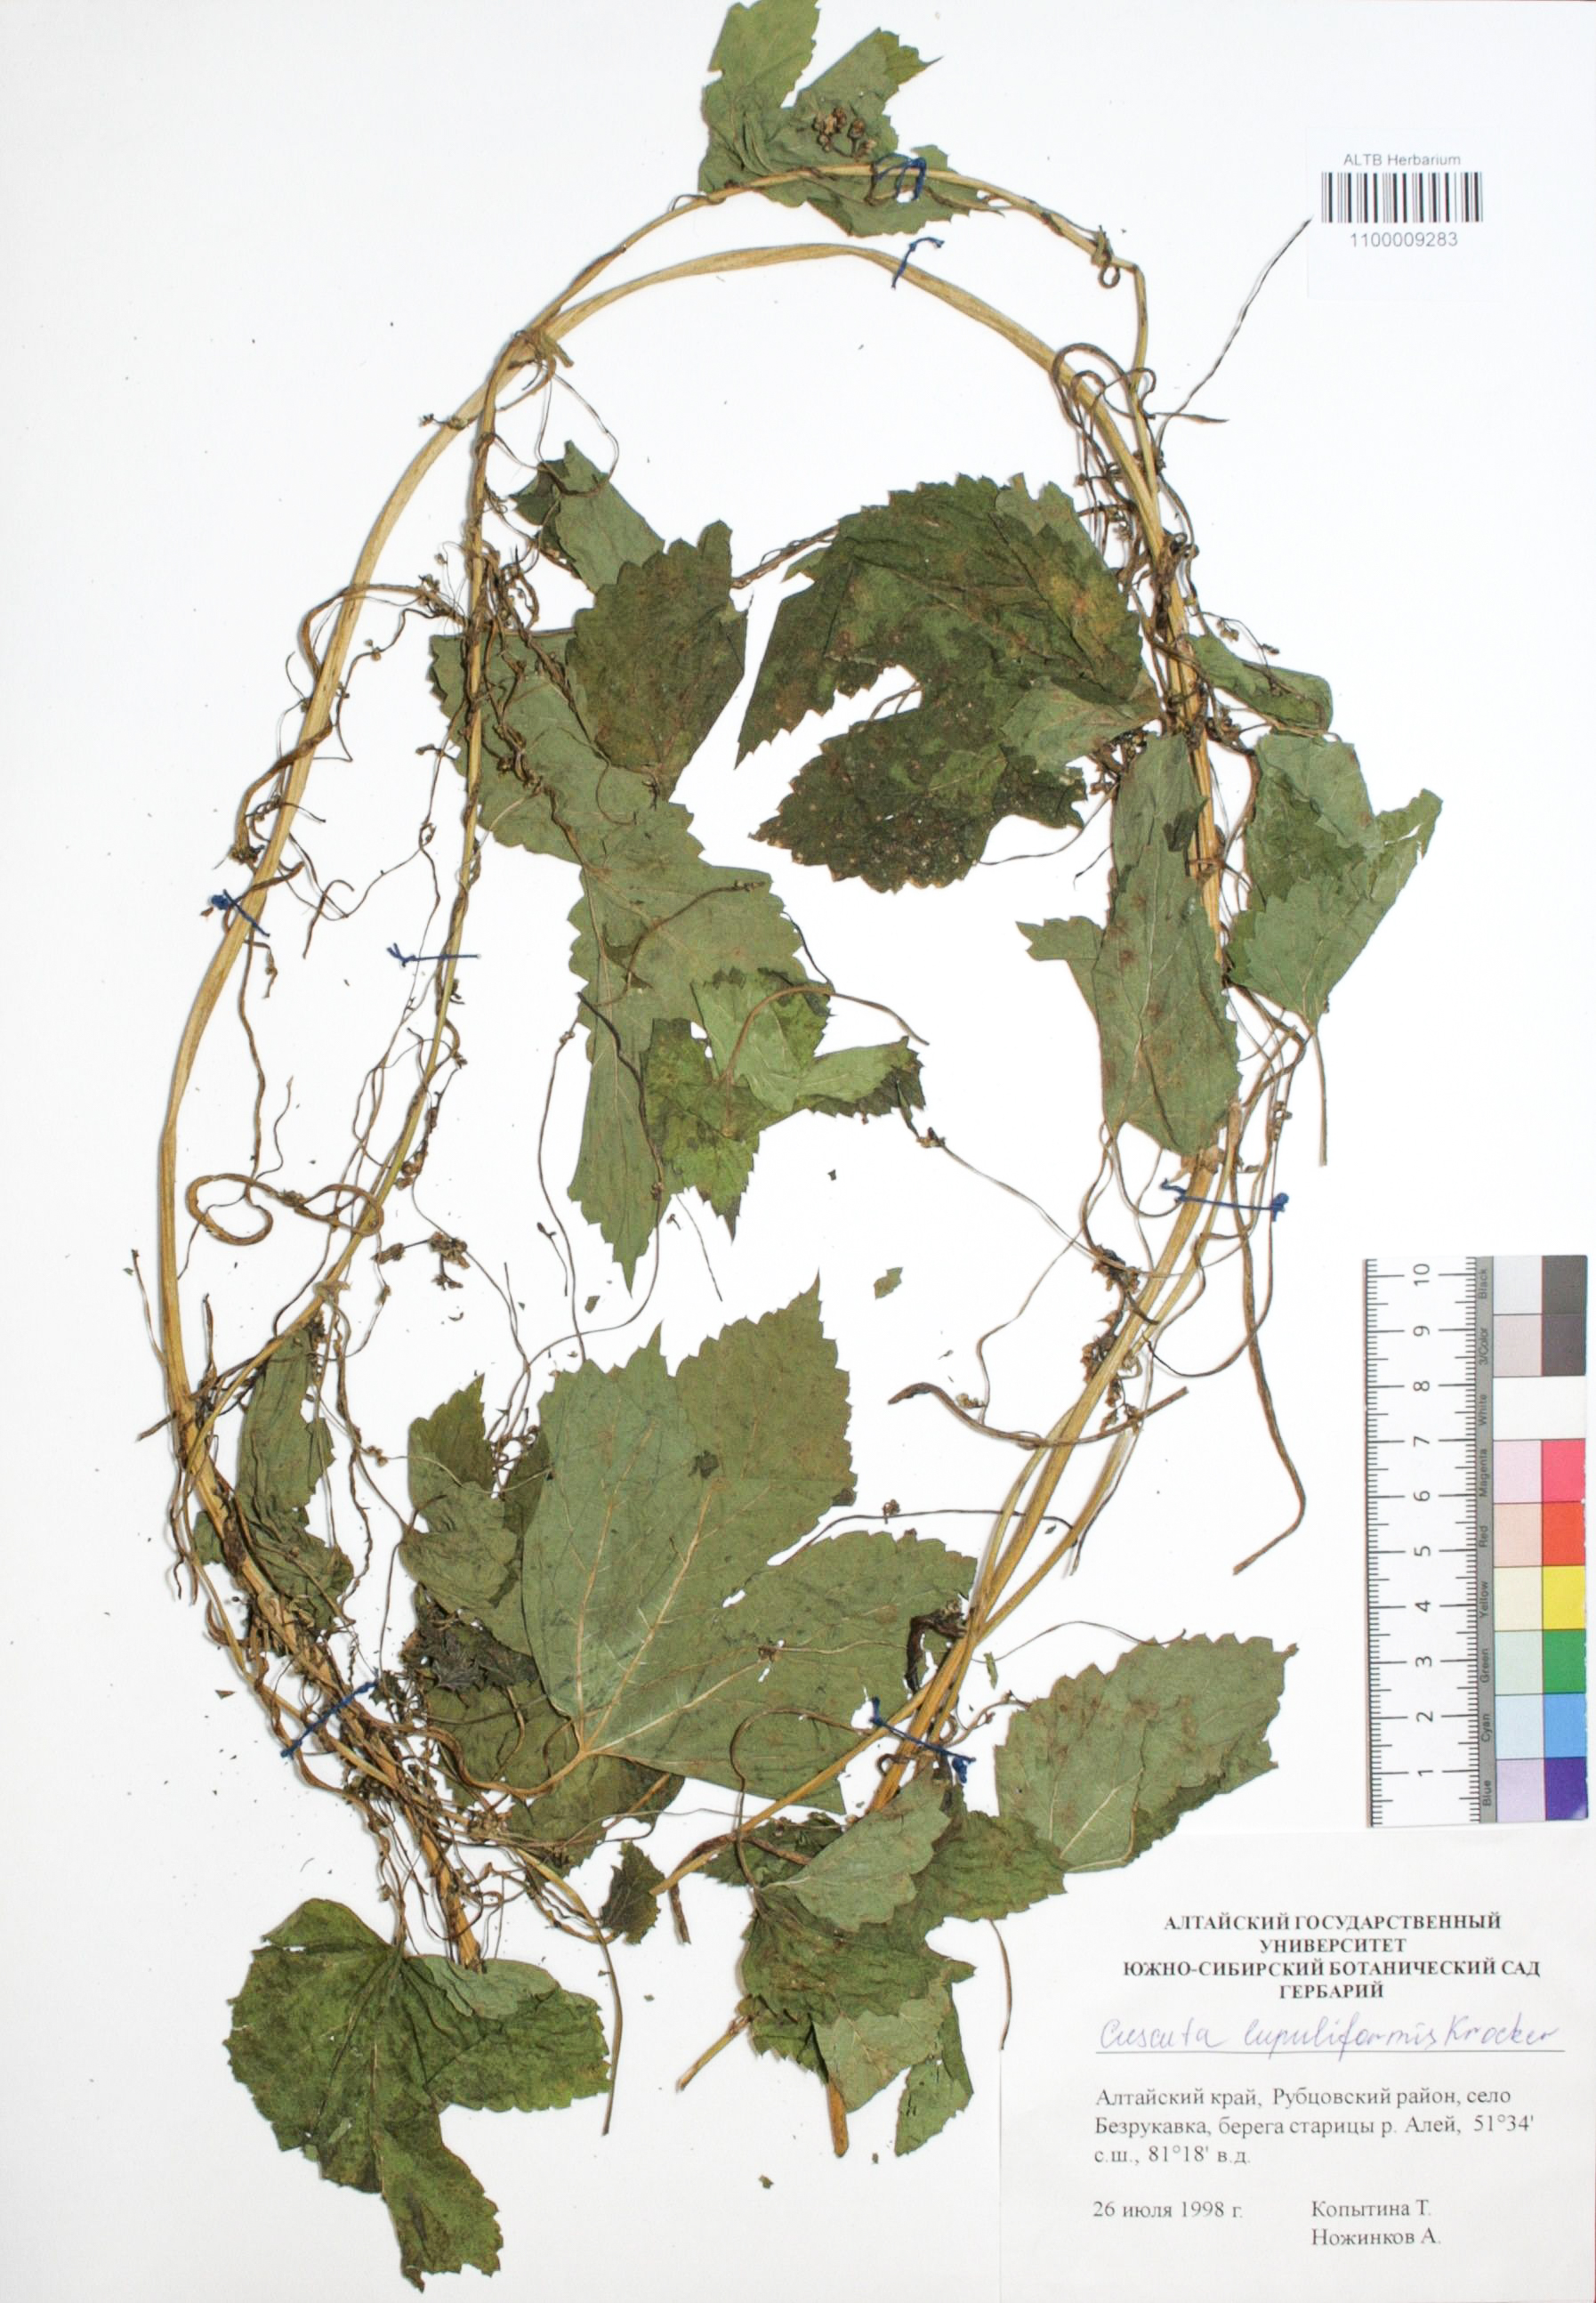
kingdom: Plantae
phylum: Tracheophyta
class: Magnoliopsida
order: Solanales
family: Convolvulaceae
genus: Cuscuta
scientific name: Cuscuta lupuliformis
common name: Hop dodder
